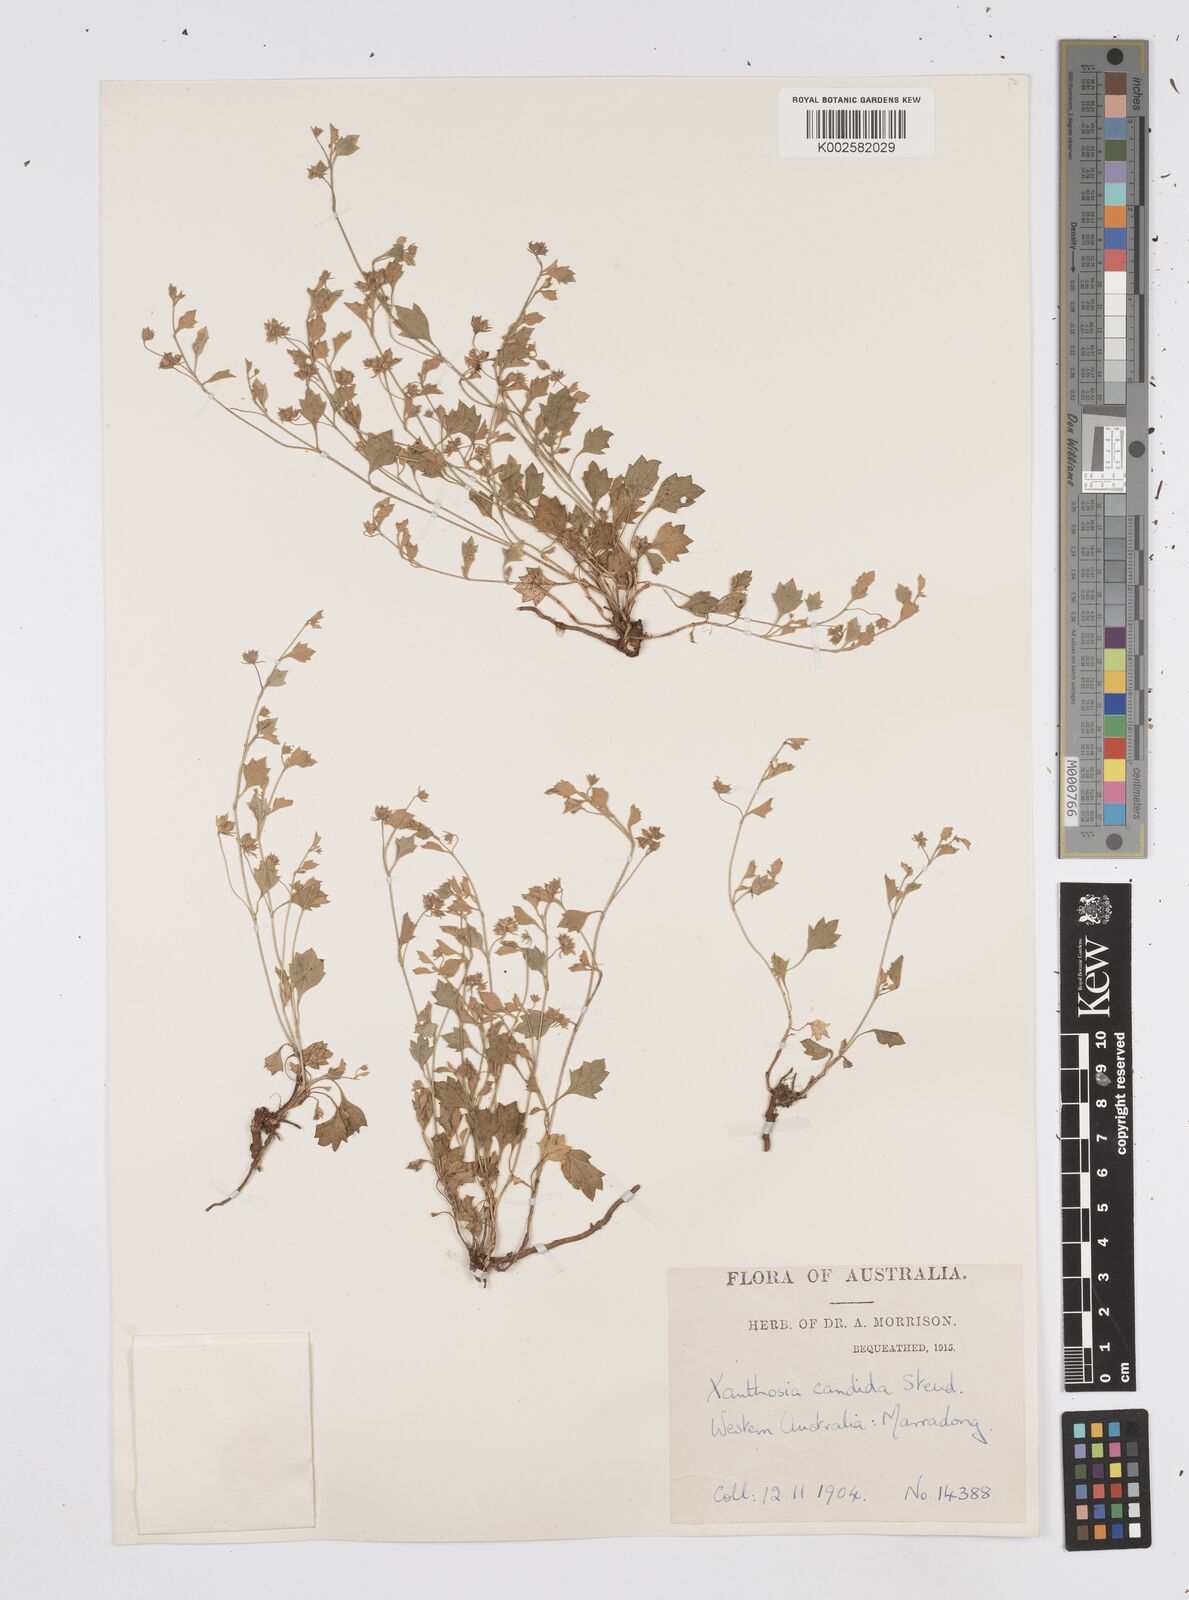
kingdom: Plantae
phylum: Tracheophyta
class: Magnoliopsida
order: Apiales
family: Apiaceae
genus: Xanthosia
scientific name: Xanthosia candida
